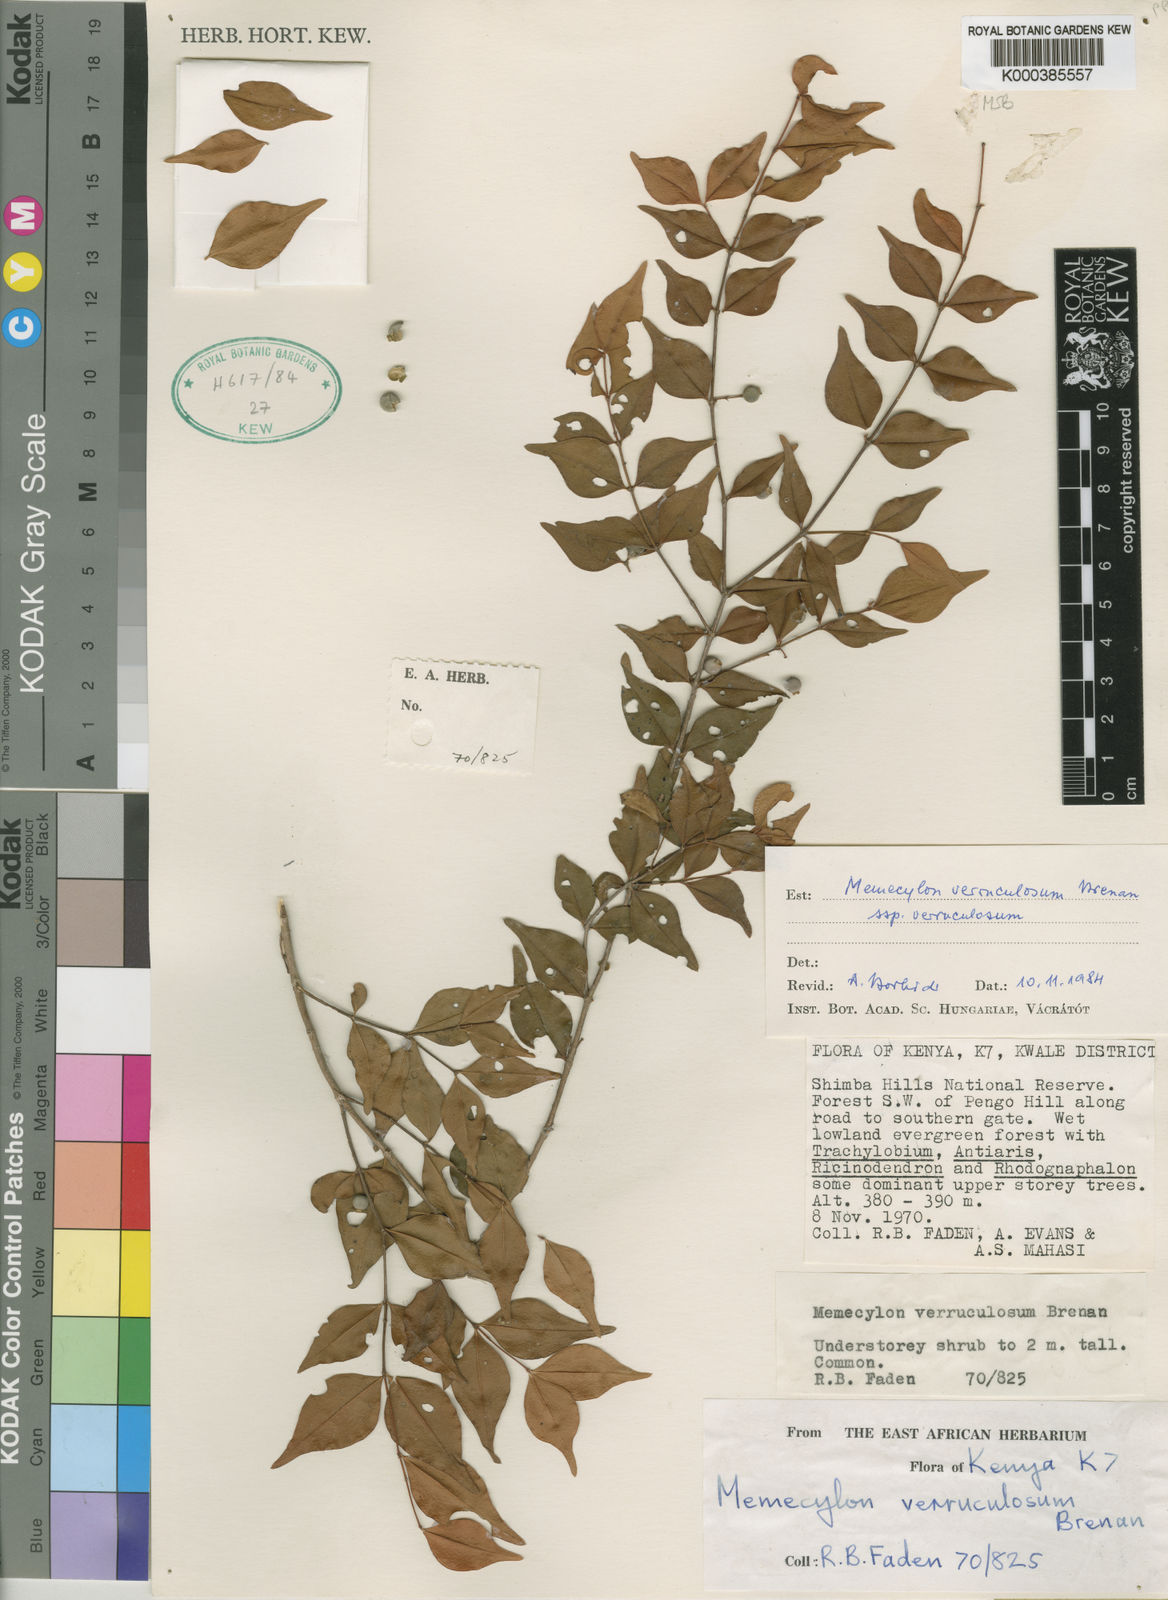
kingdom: Plantae
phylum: Tracheophyta
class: Magnoliopsida
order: Myrtales
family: Melastomataceae
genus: Memecylon
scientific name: Memecylon verruculosum
